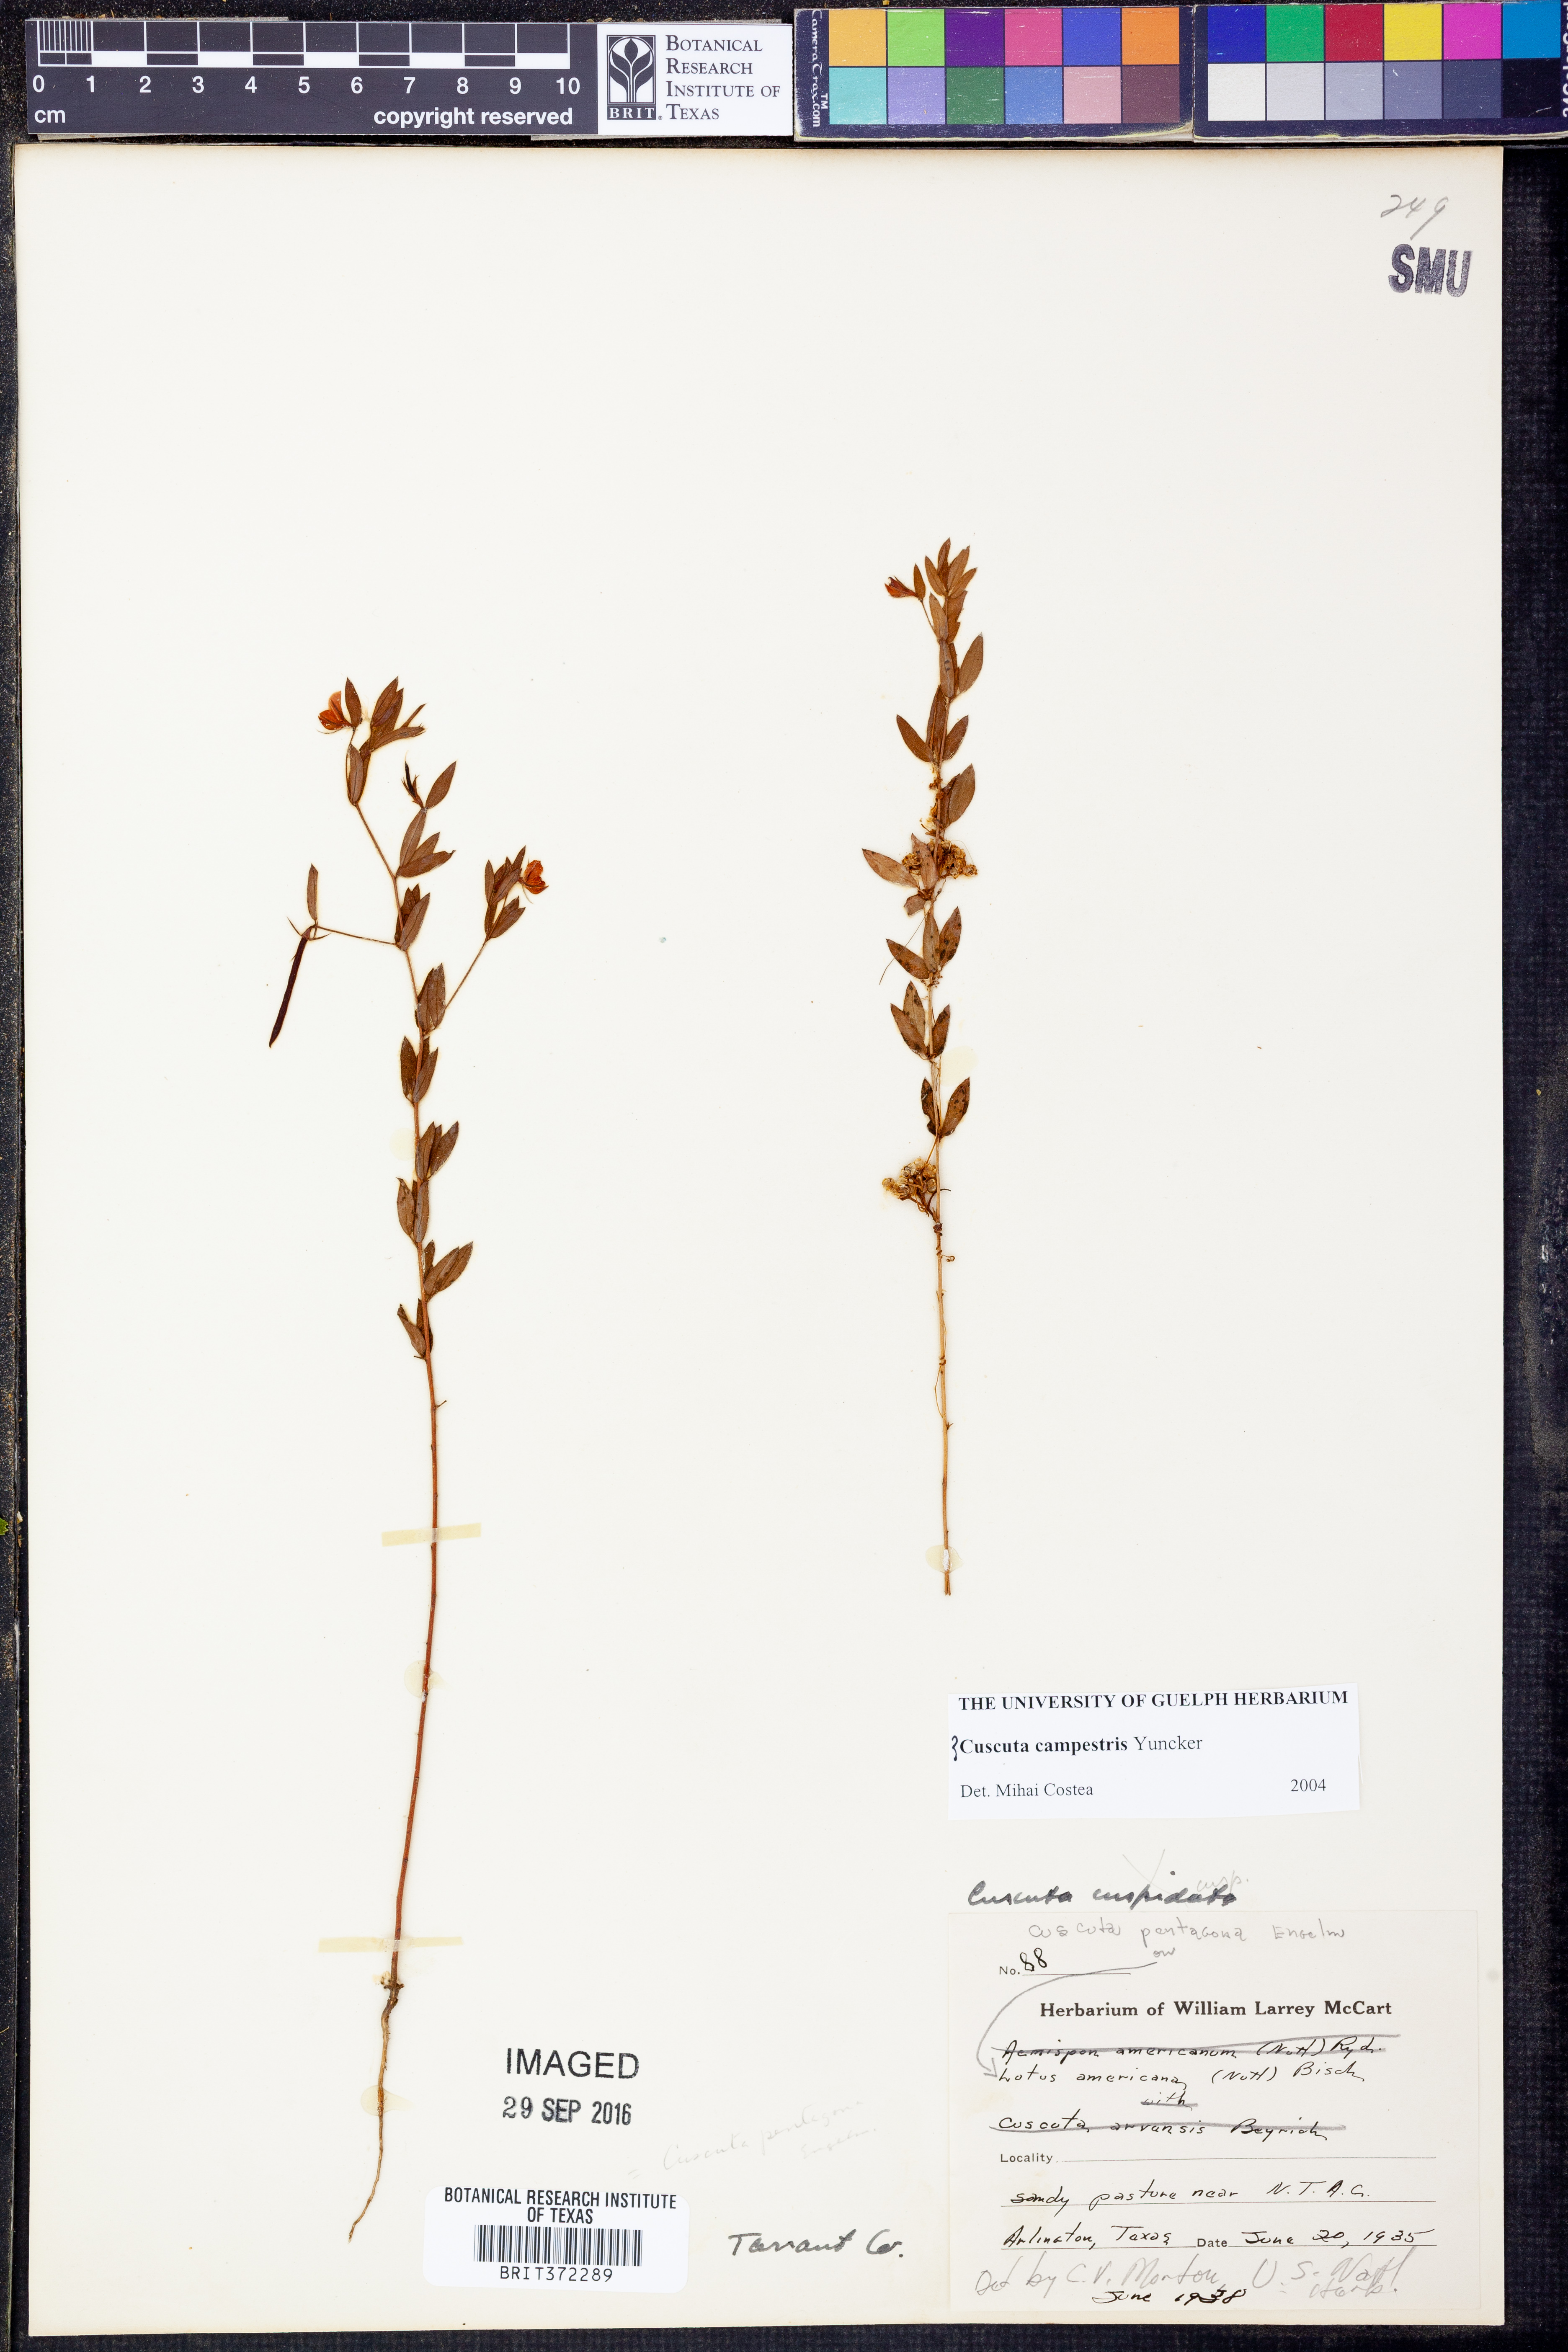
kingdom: Plantae
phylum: Tracheophyta
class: Magnoliopsida
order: Solanales
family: Convolvulaceae
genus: Cuscuta
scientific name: Cuscuta campestris
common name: Yellow dodder
